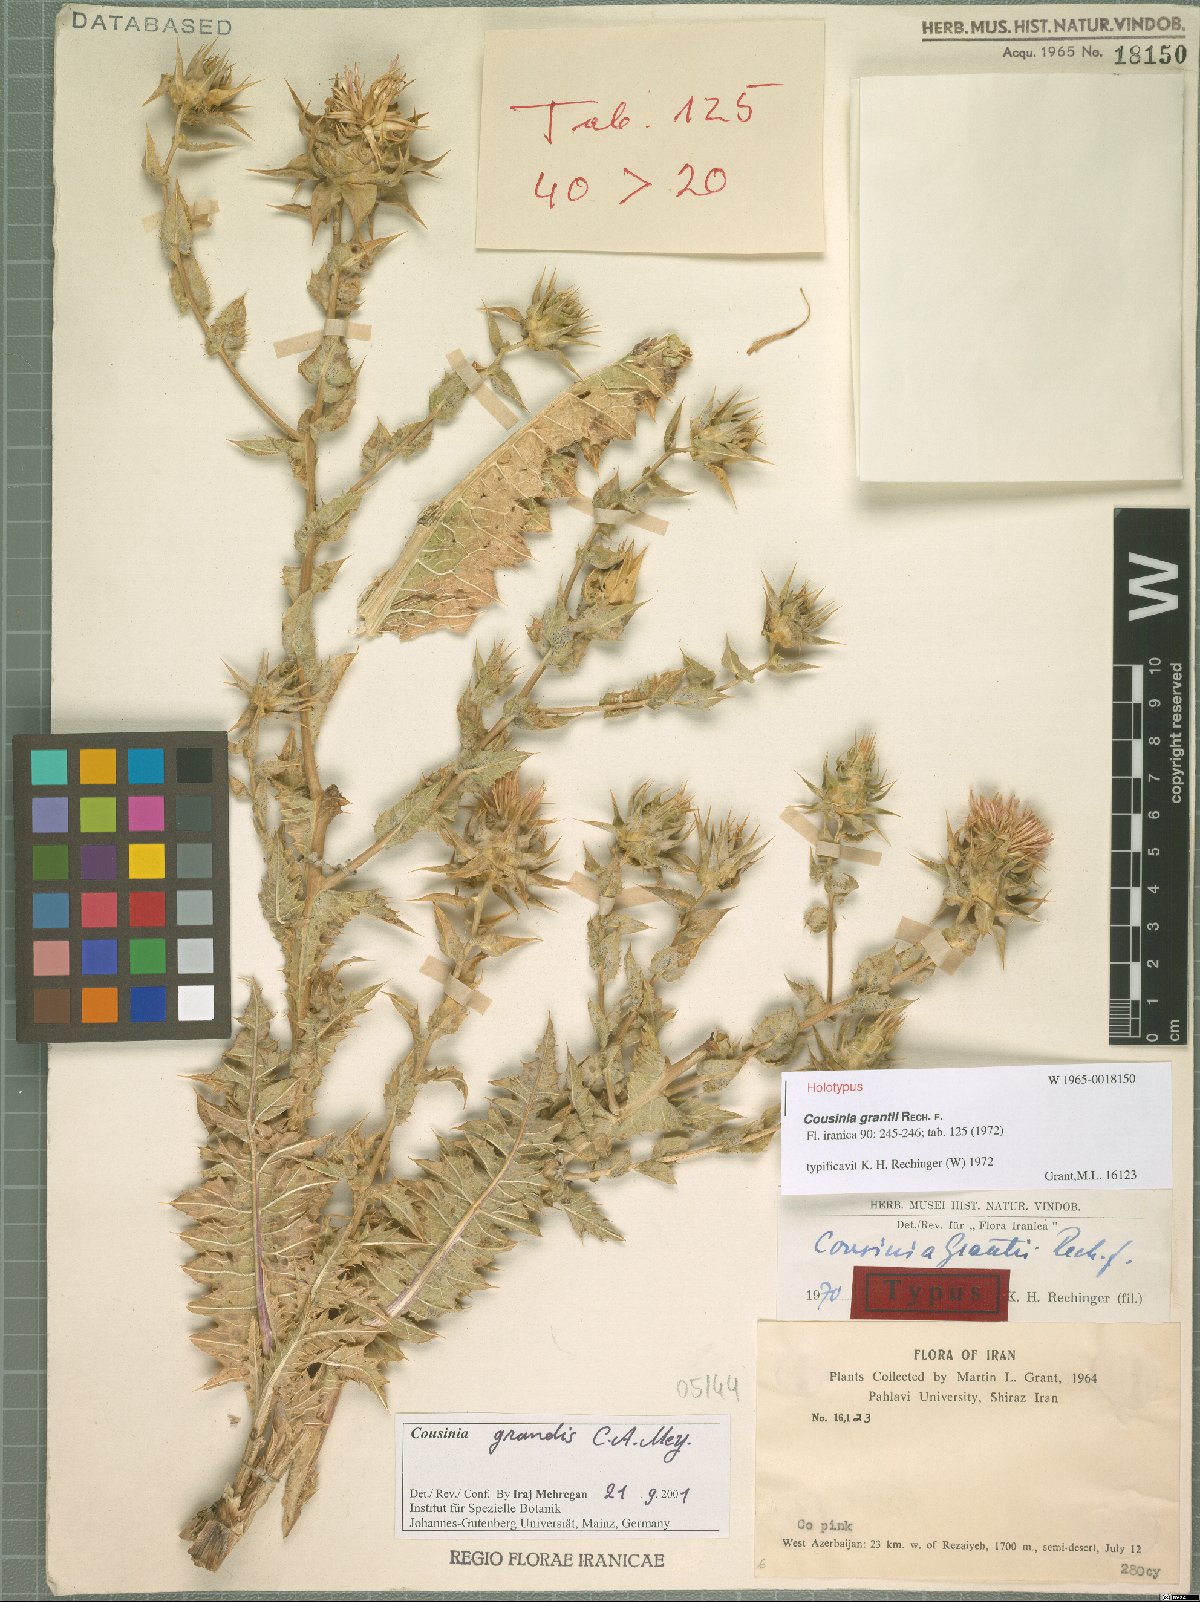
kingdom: Plantae
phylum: Tracheophyta
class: Magnoliopsida
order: Asterales
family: Asteraceae
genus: Cousinia
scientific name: Cousinia grandis
